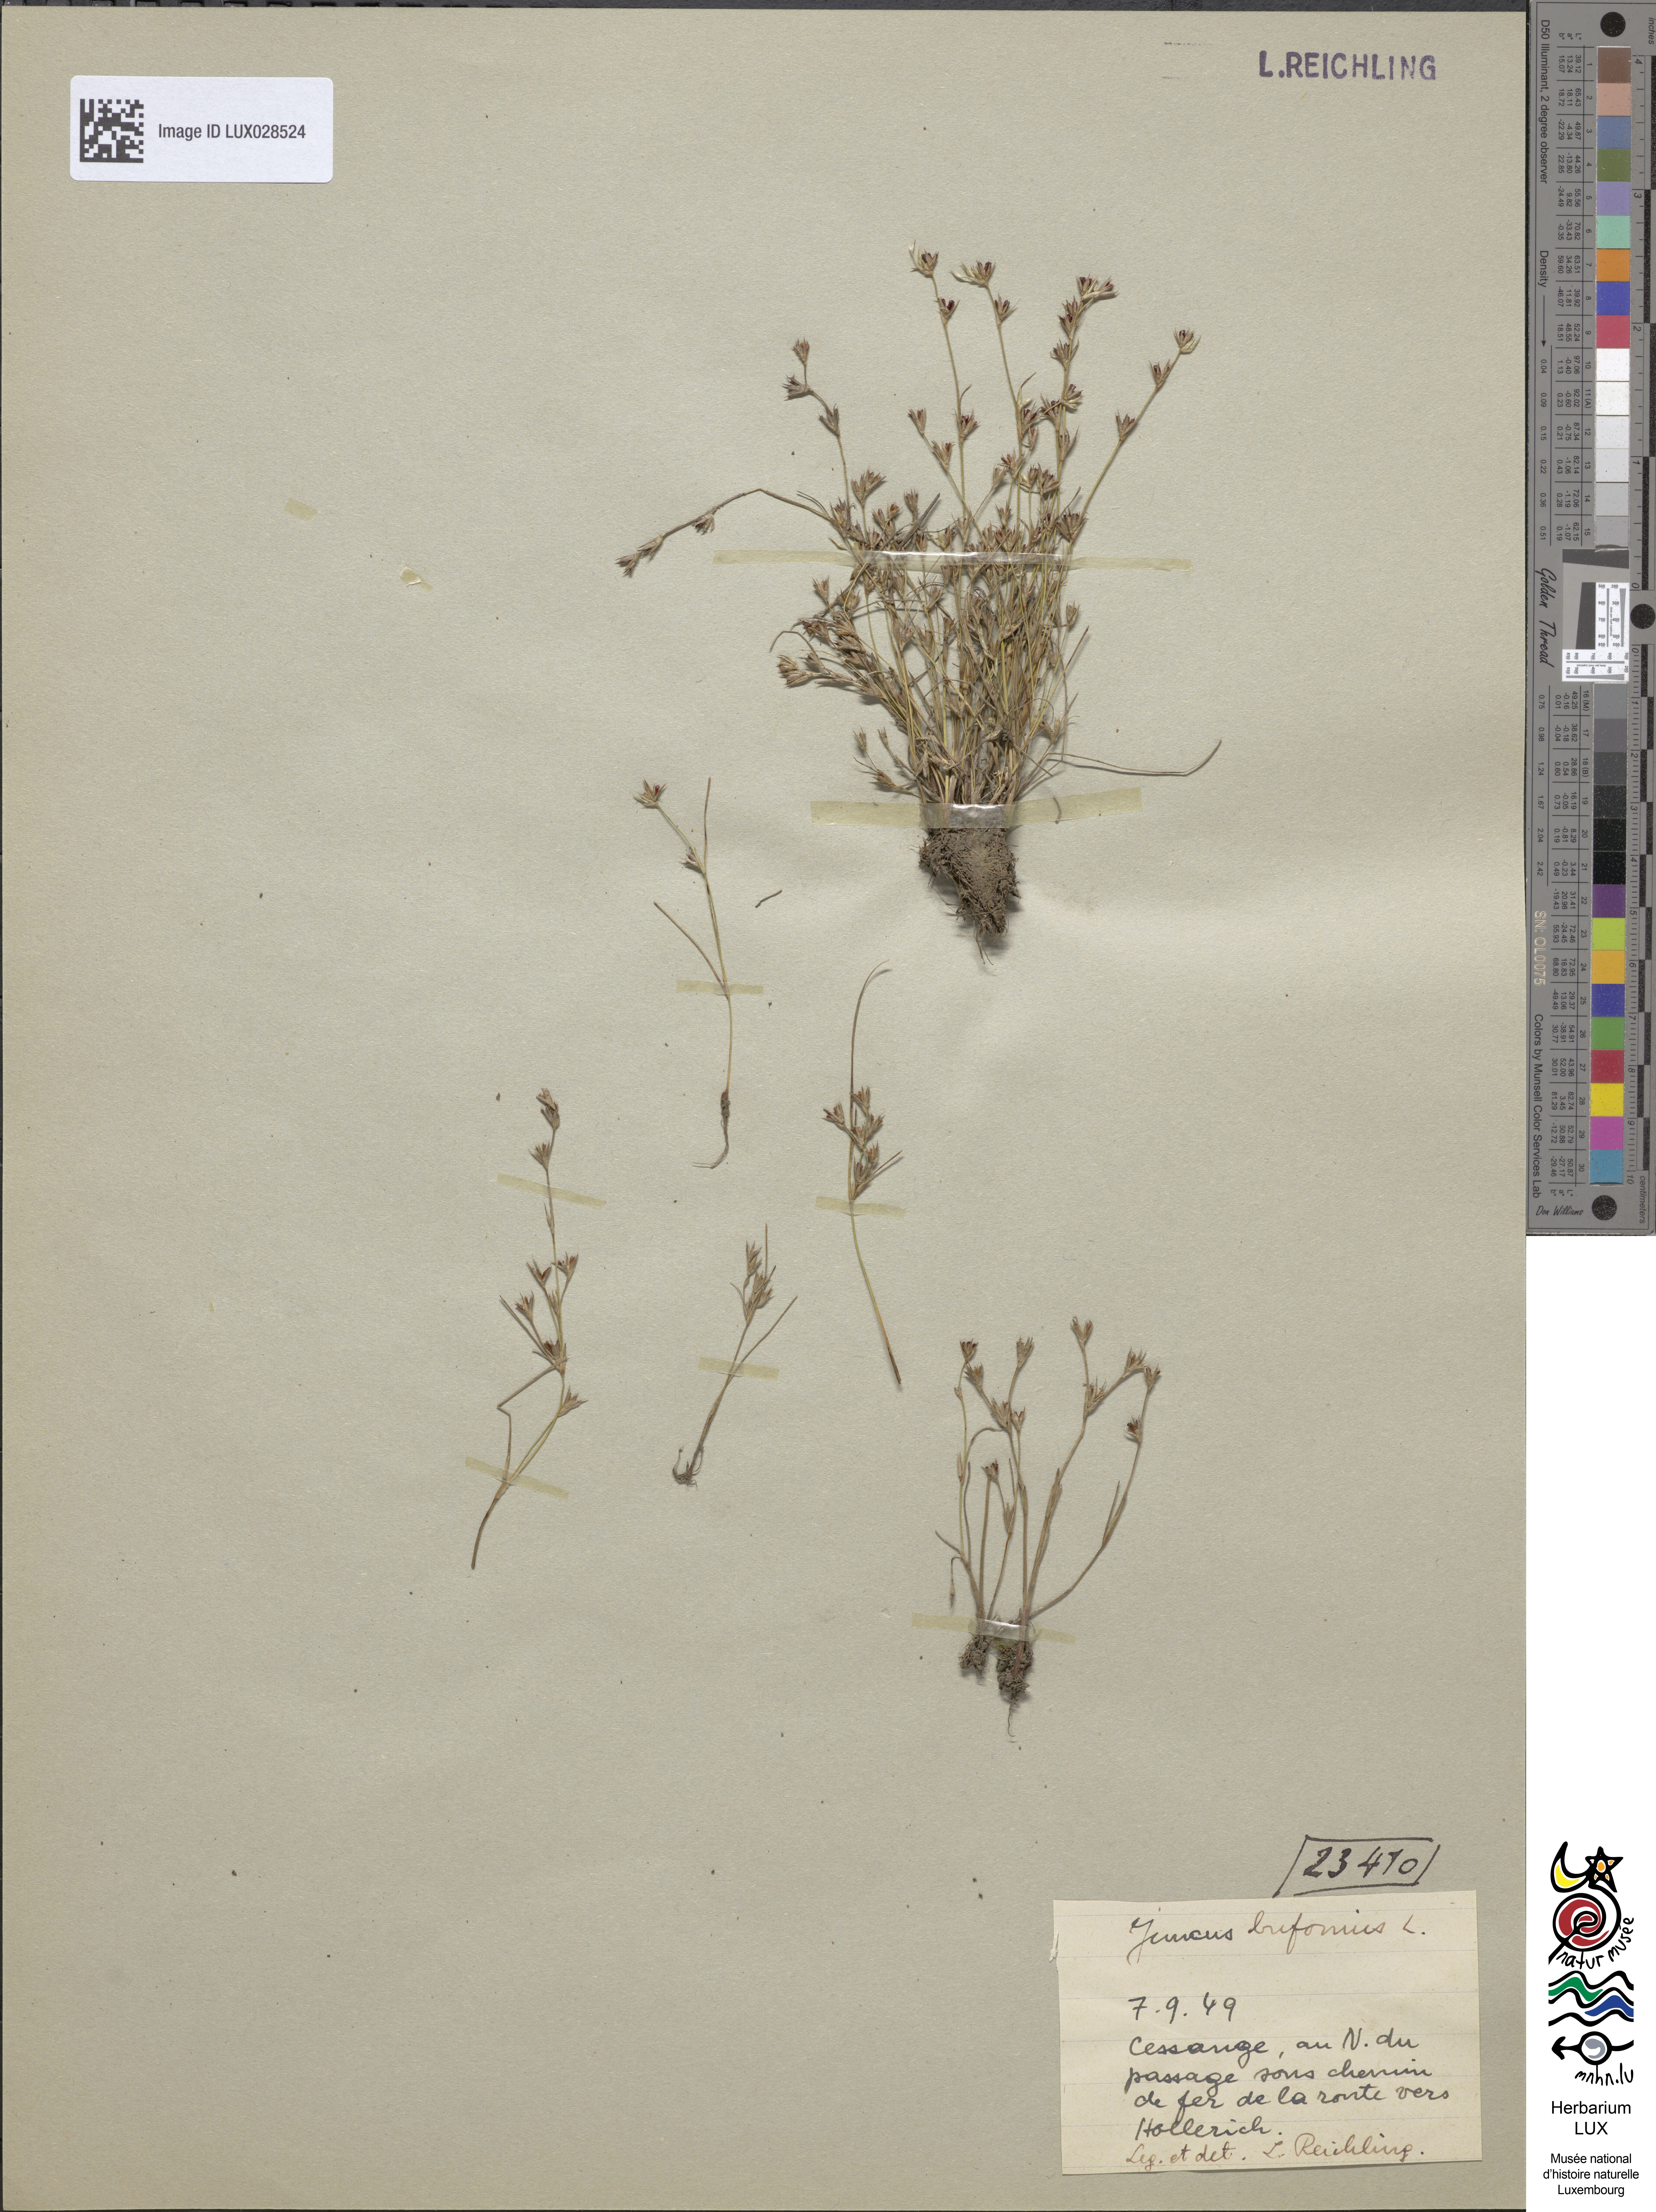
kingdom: Plantae
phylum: Tracheophyta
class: Liliopsida
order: Poales
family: Juncaceae
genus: Juncus
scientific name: Juncus bufonius
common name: Toad rush
